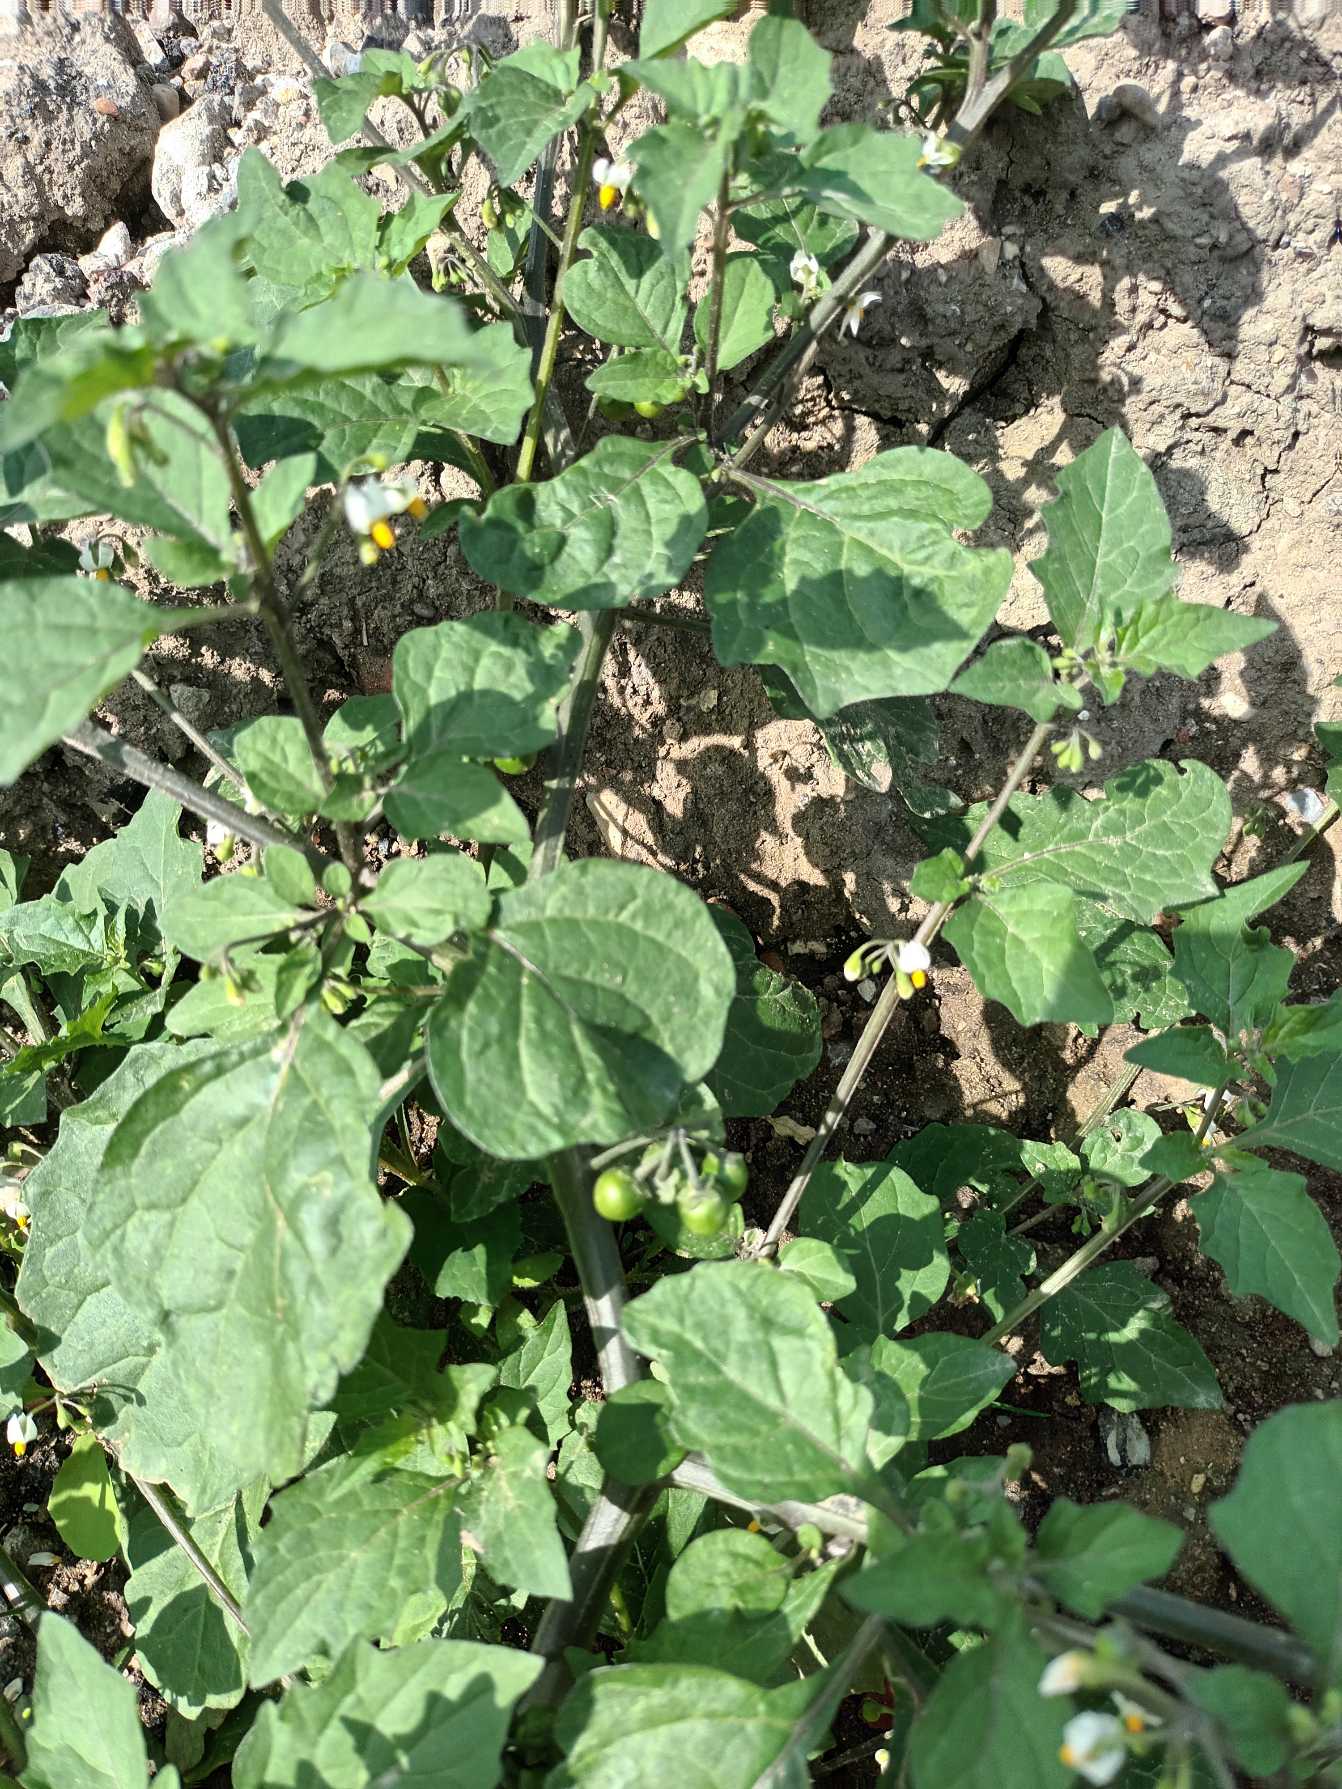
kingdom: Plantae
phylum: Tracheophyta
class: Magnoliopsida
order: Solanales
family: Solanaceae
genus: Solanum
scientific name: Solanum nigrum
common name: Sort natskygge (underart)
